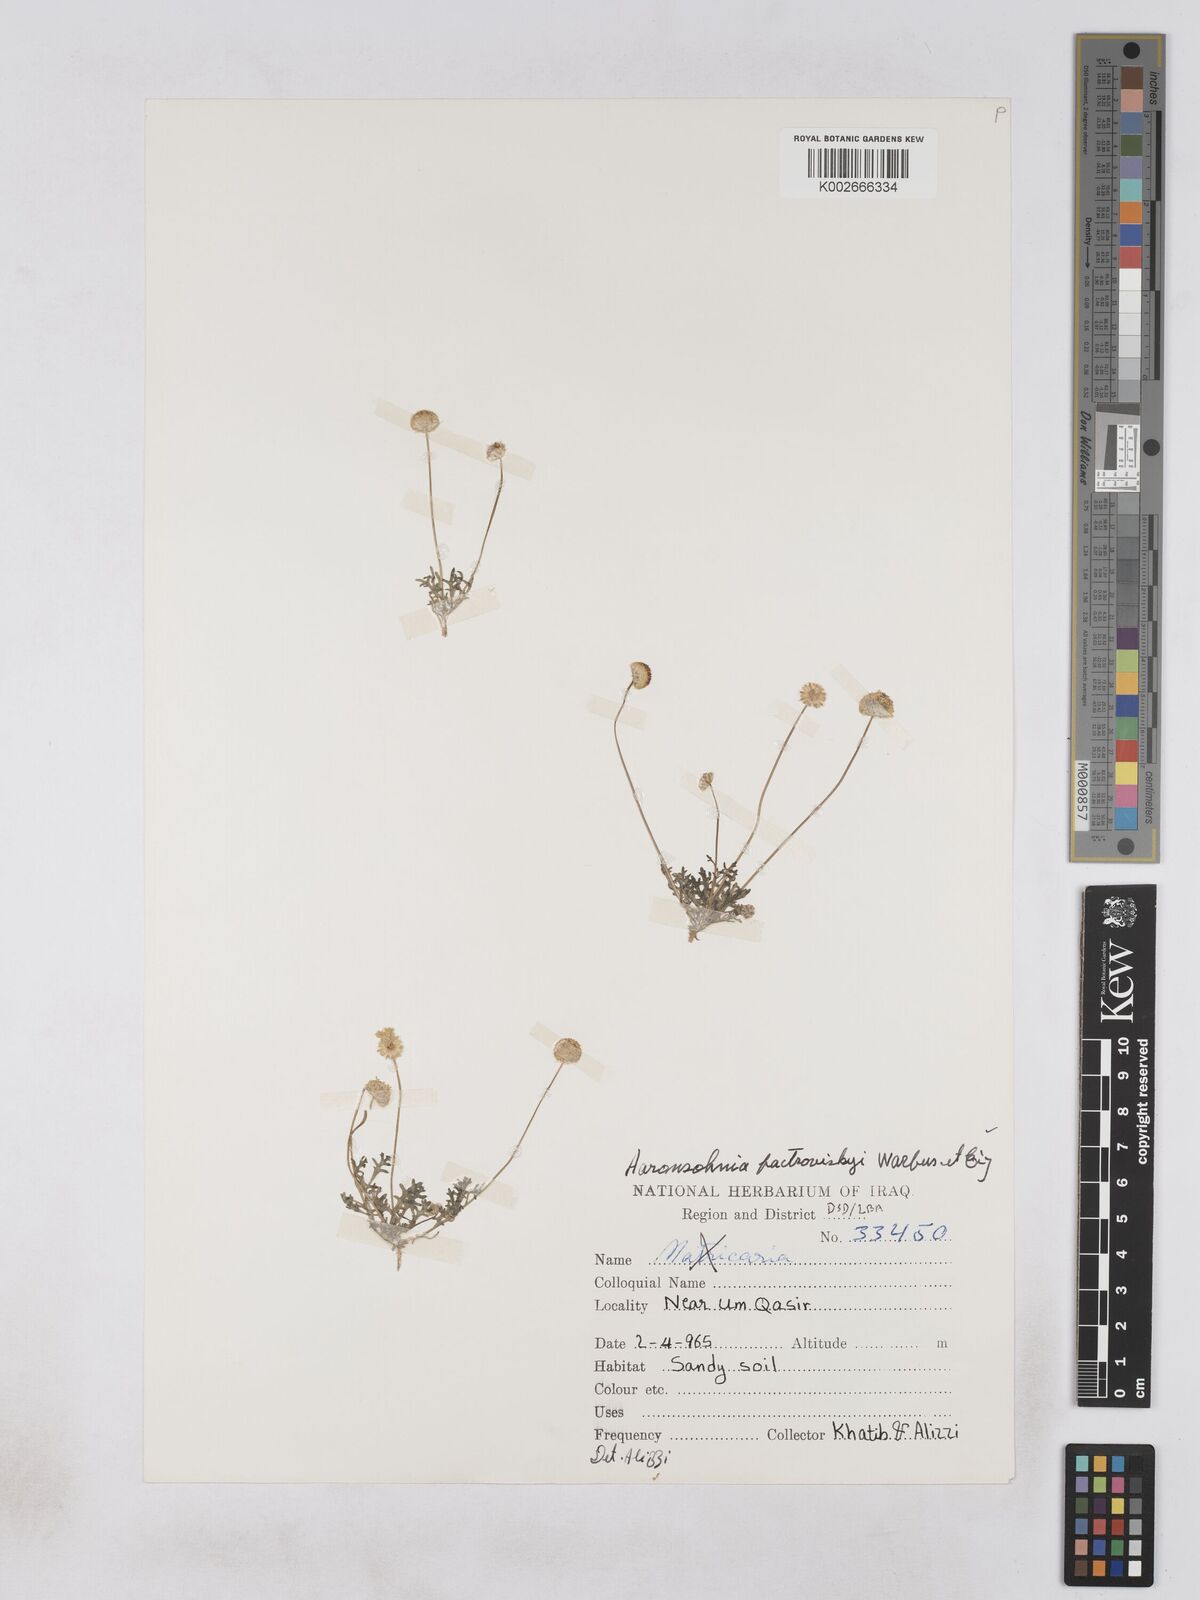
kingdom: Plantae
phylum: Tracheophyta
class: Magnoliopsida
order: Asterales
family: Asteraceae
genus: Otoglyphis
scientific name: Otoglyphis factorovskyi
